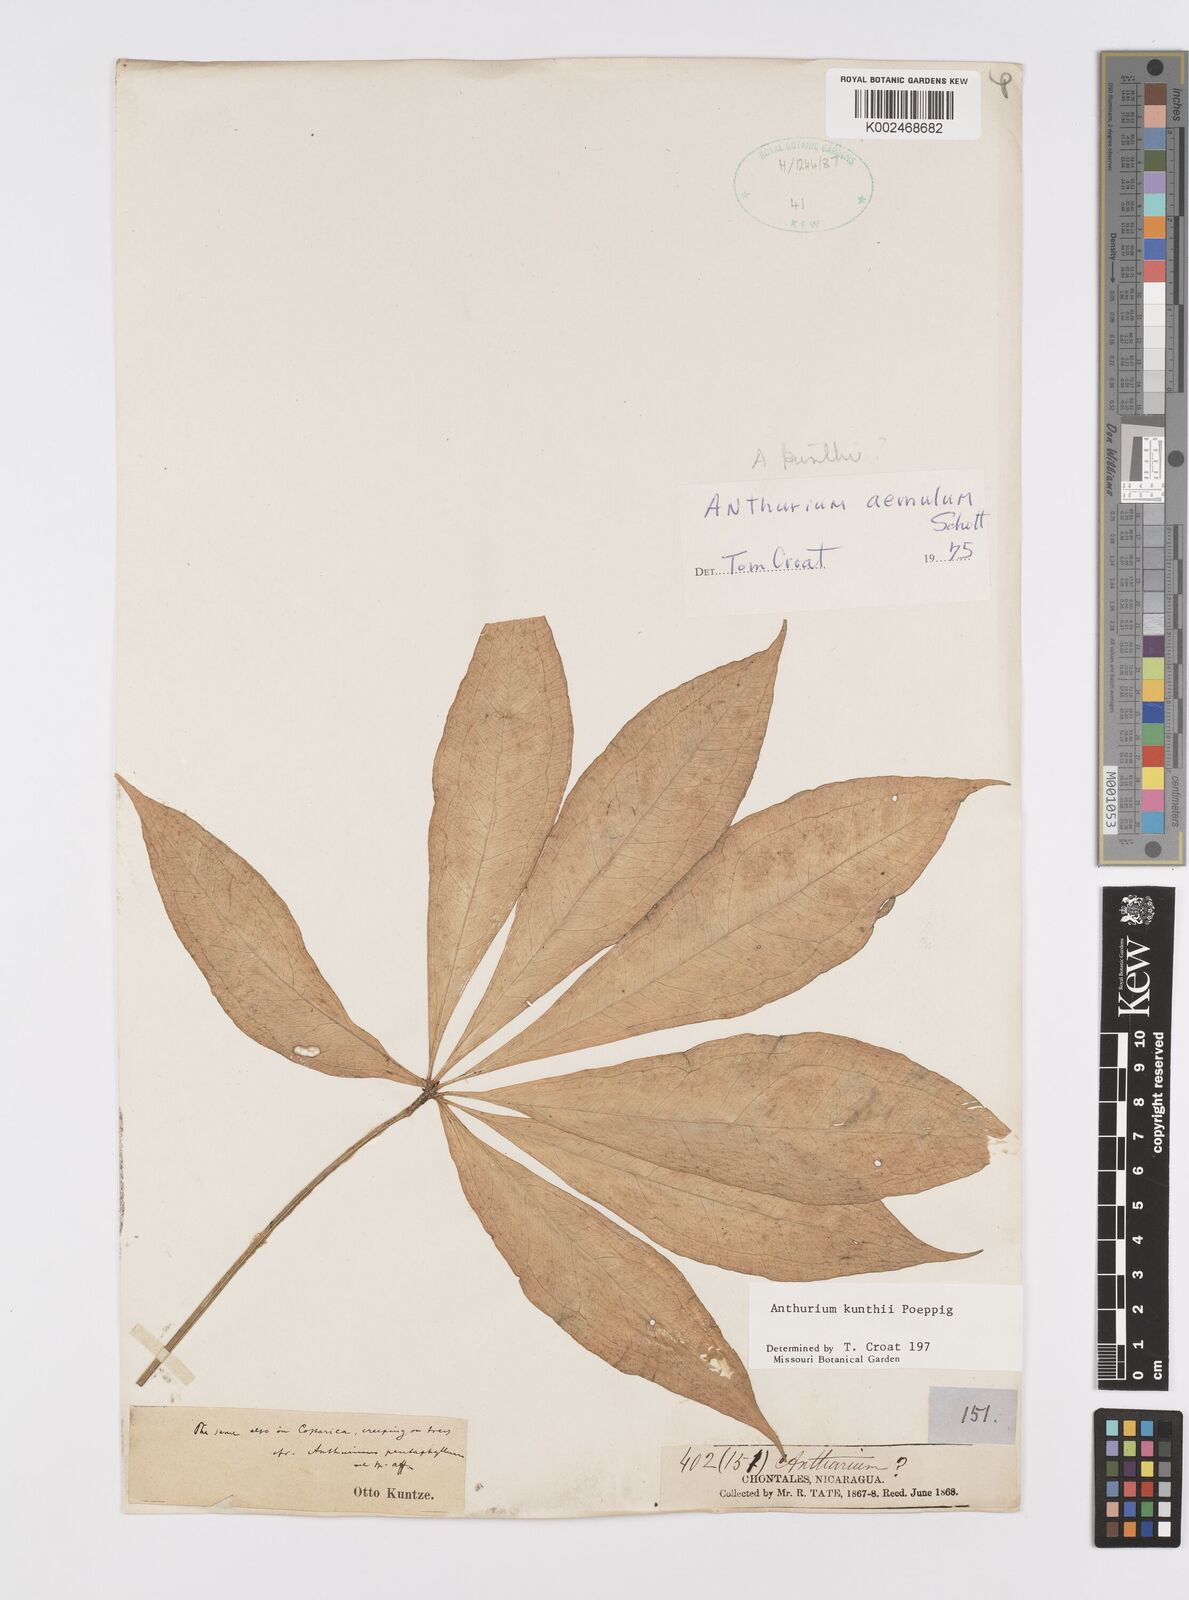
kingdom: Plantae
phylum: Tracheophyta
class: Liliopsida
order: Alismatales
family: Araceae
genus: Anthurium
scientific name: Anthurium kunthii
